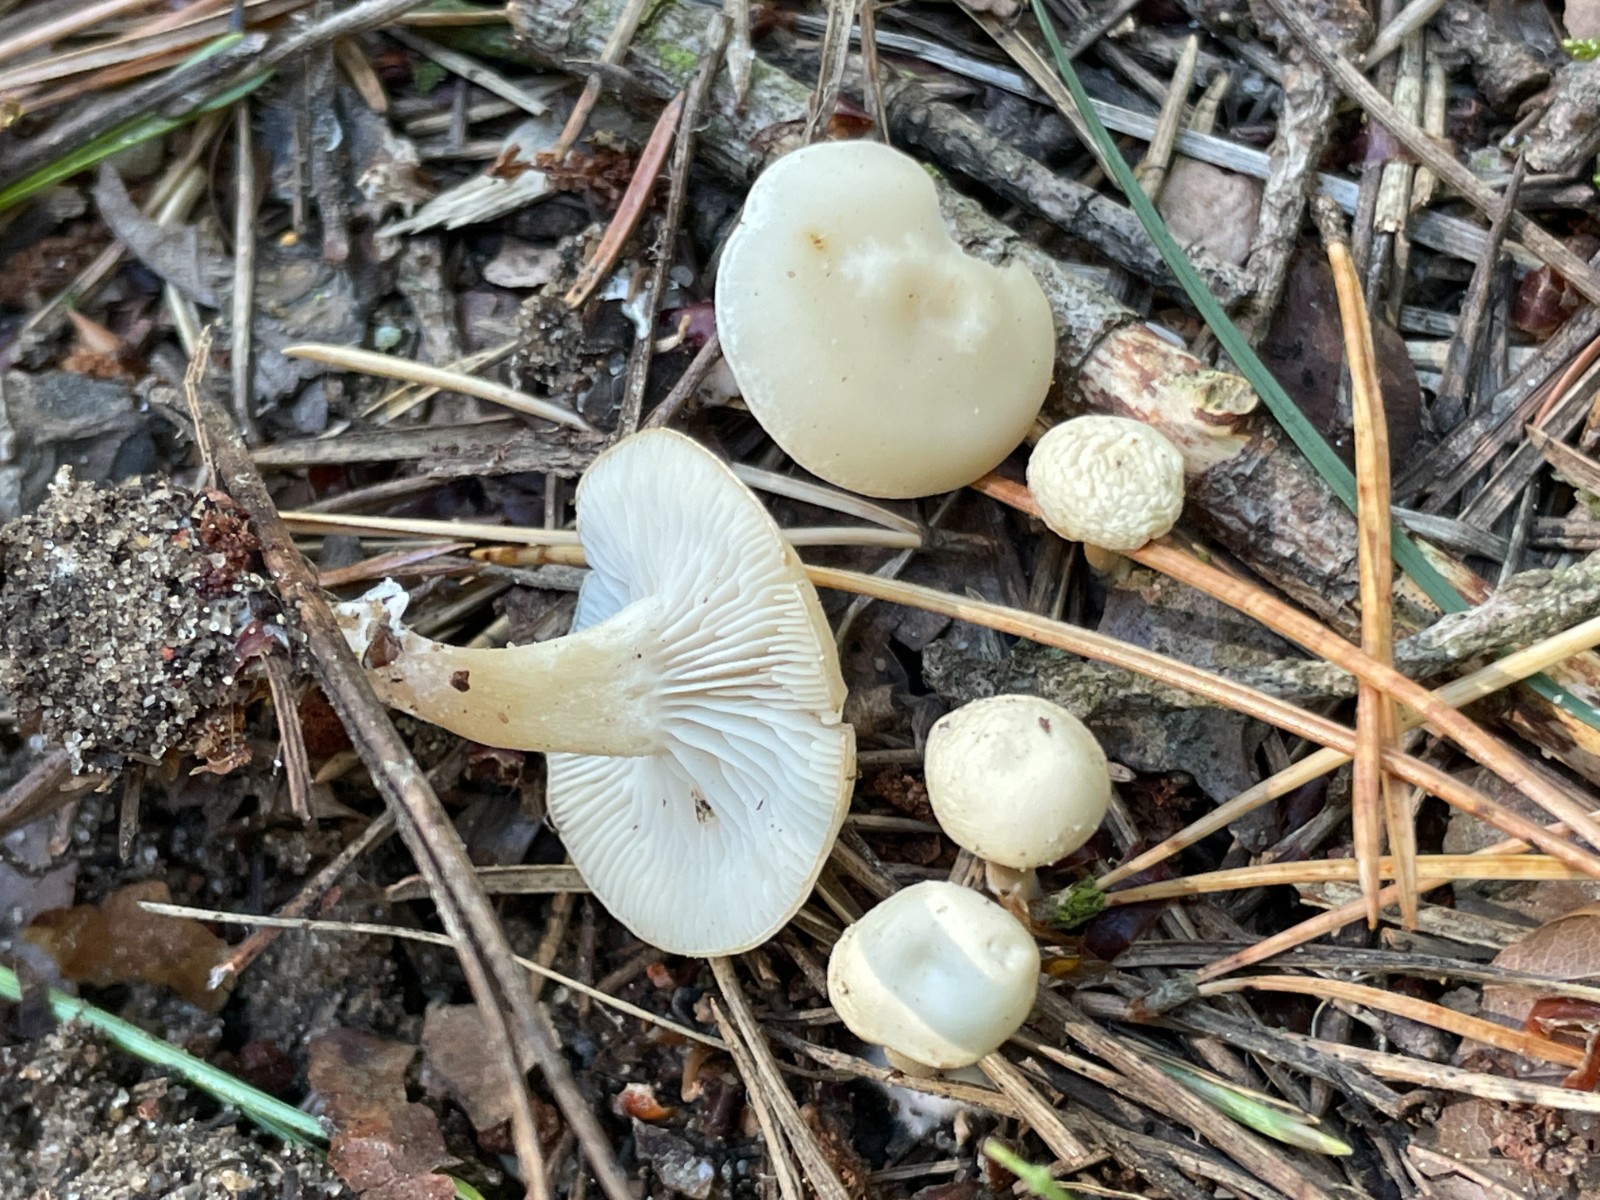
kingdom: Fungi
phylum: Basidiomycota
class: Agaricomycetes
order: Agaricales
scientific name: Agaricales
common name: champignonordenen
